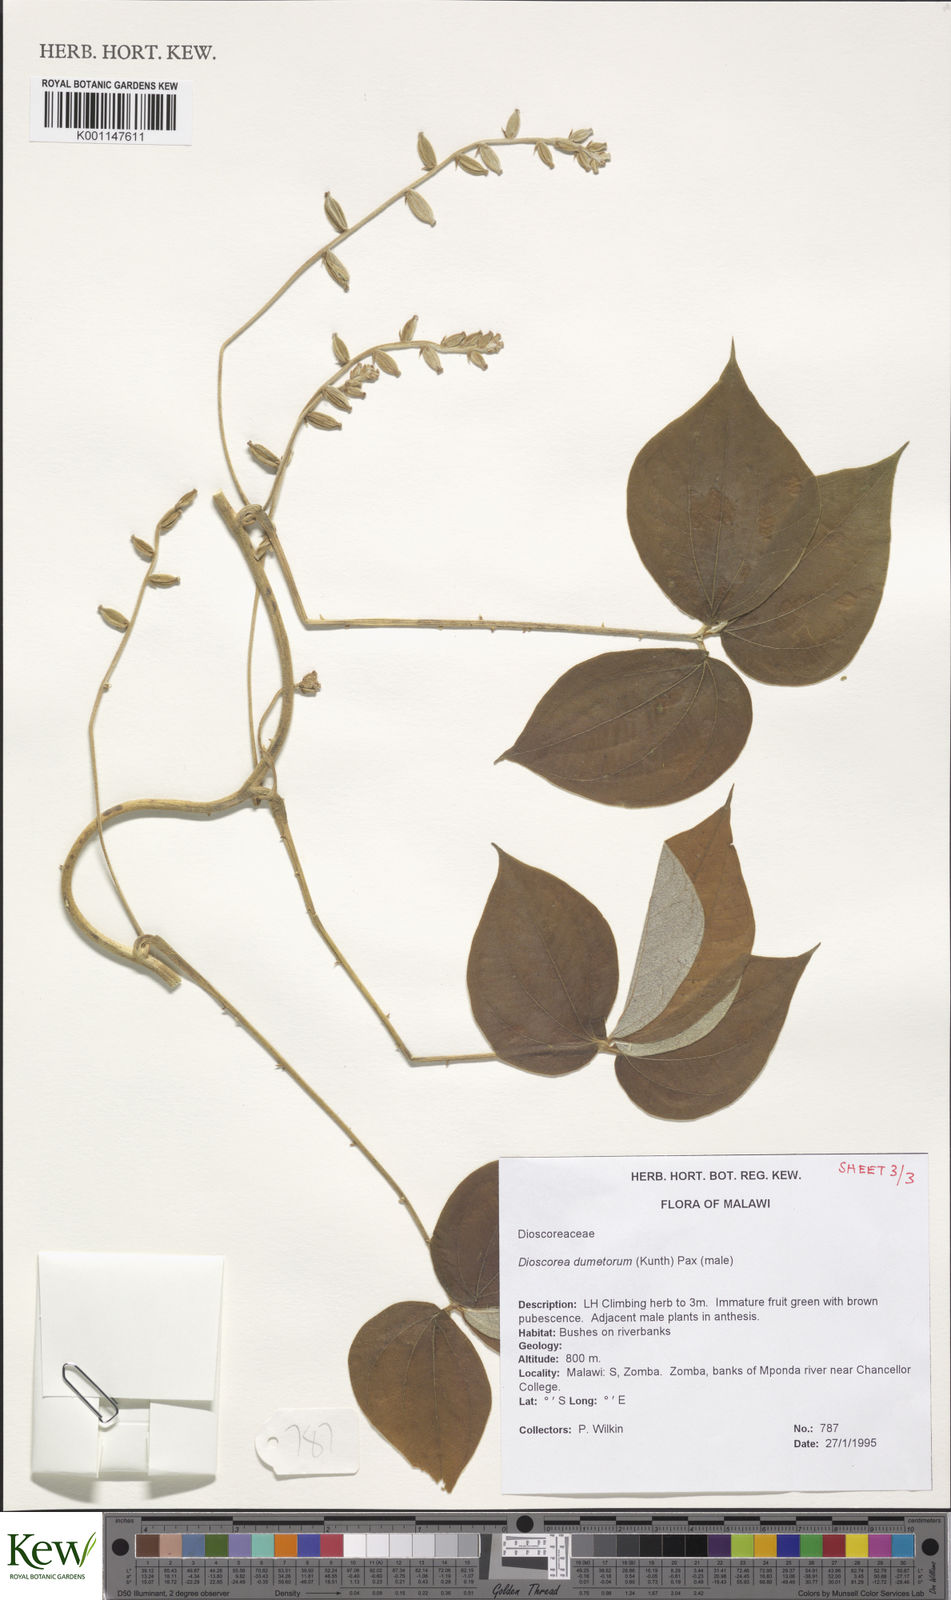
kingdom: Plantae
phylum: Tracheophyta
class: Liliopsida
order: Dioscoreales
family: Dioscoreaceae
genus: Dioscorea
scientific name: Dioscorea dumetorum
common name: African bitter yam
